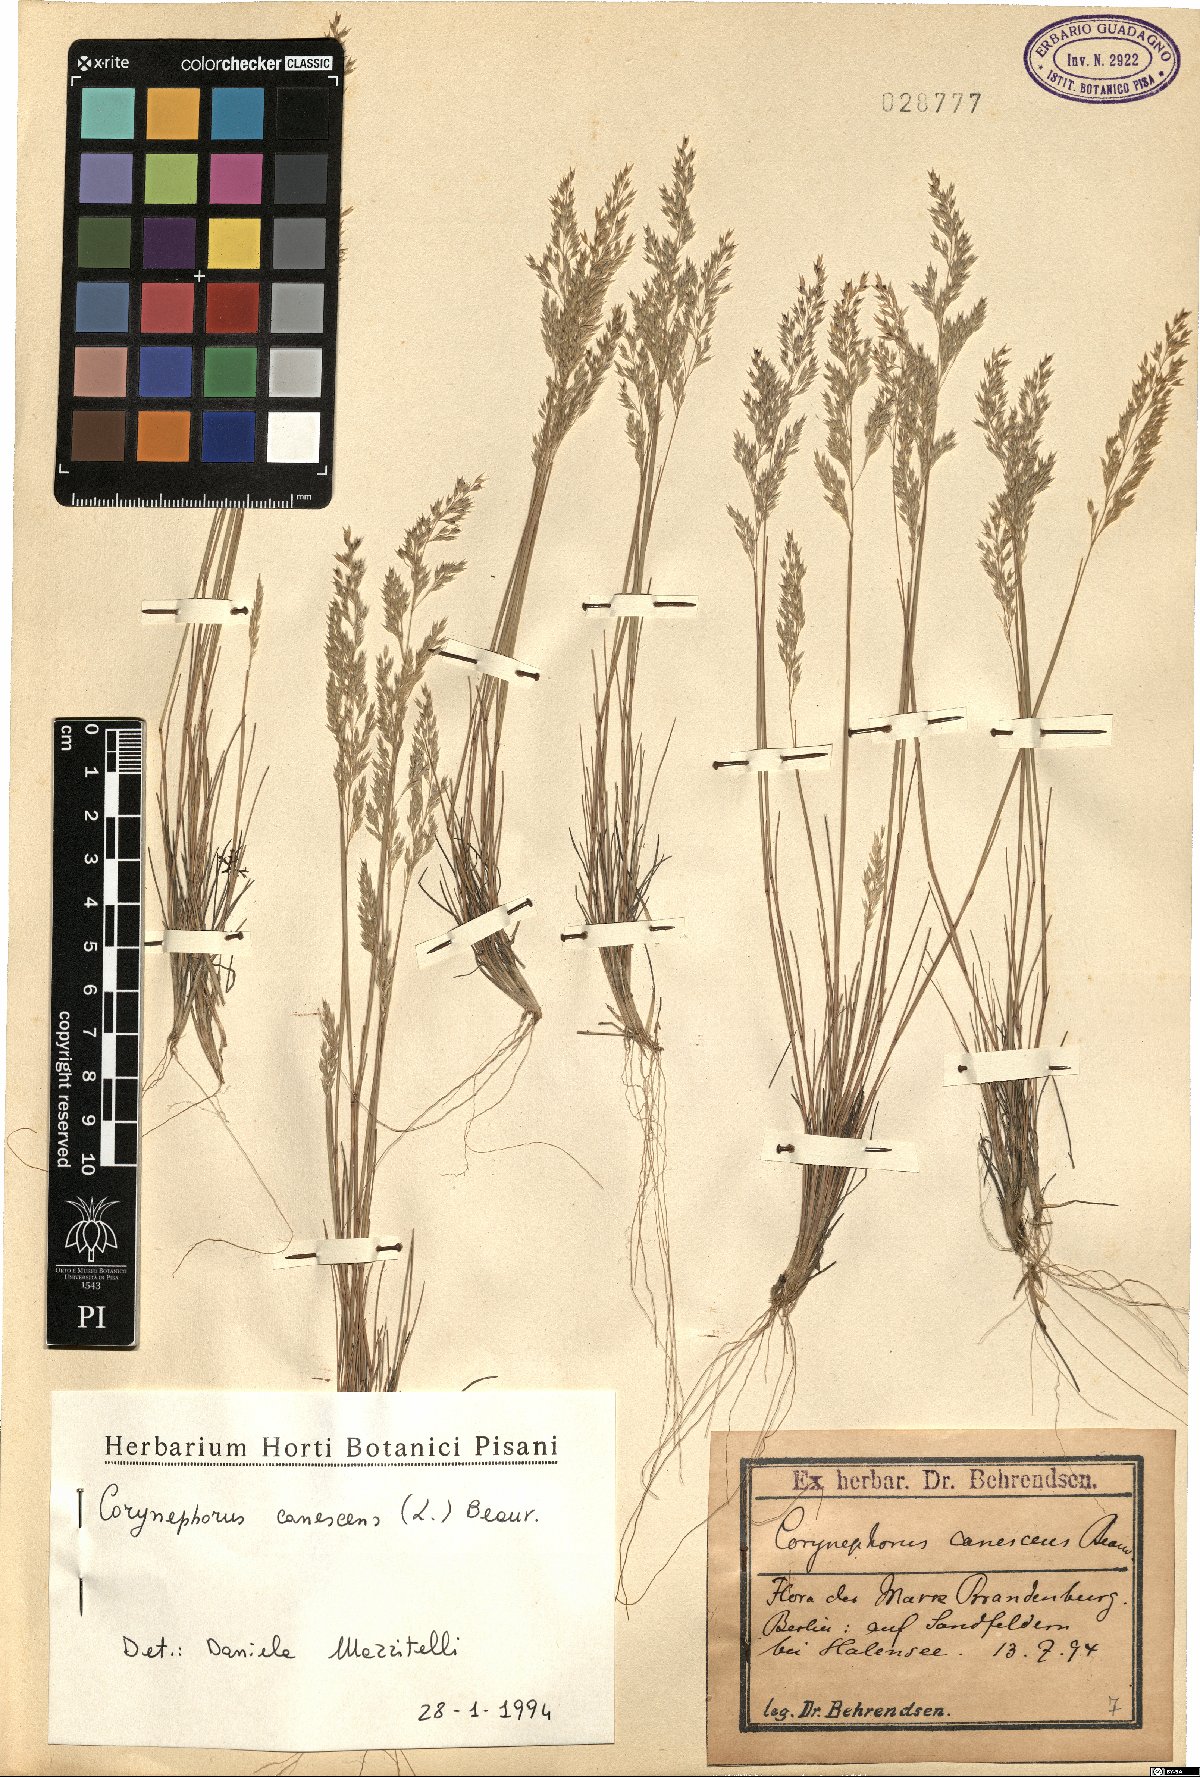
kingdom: Plantae
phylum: Tracheophyta
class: Liliopsida
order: Poales
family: Poaceae
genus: Corynephorus
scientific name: Corynephorus canescens
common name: Grey hair-grass
